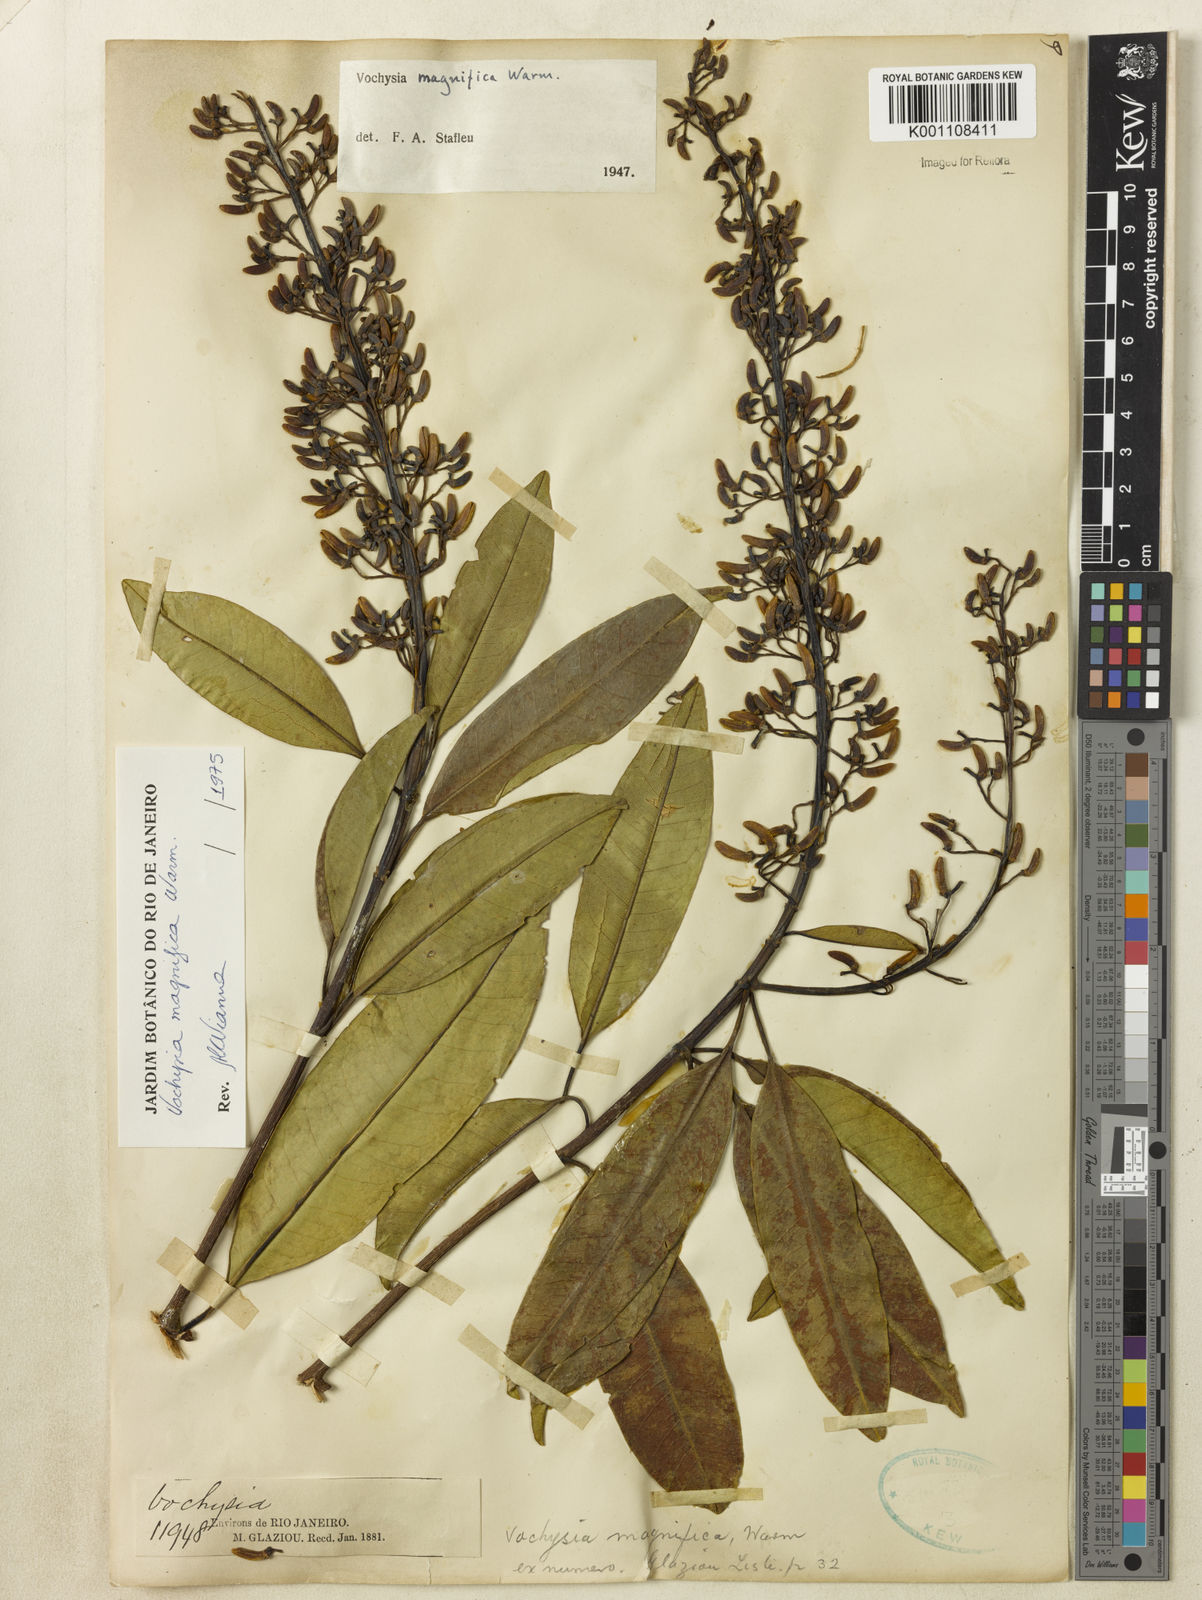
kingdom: Plantae
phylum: Tracheophyta
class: Magnoliopsida
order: Myrtales
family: Vochysiaceae
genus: Vochysia
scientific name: Vochysia magnifica
